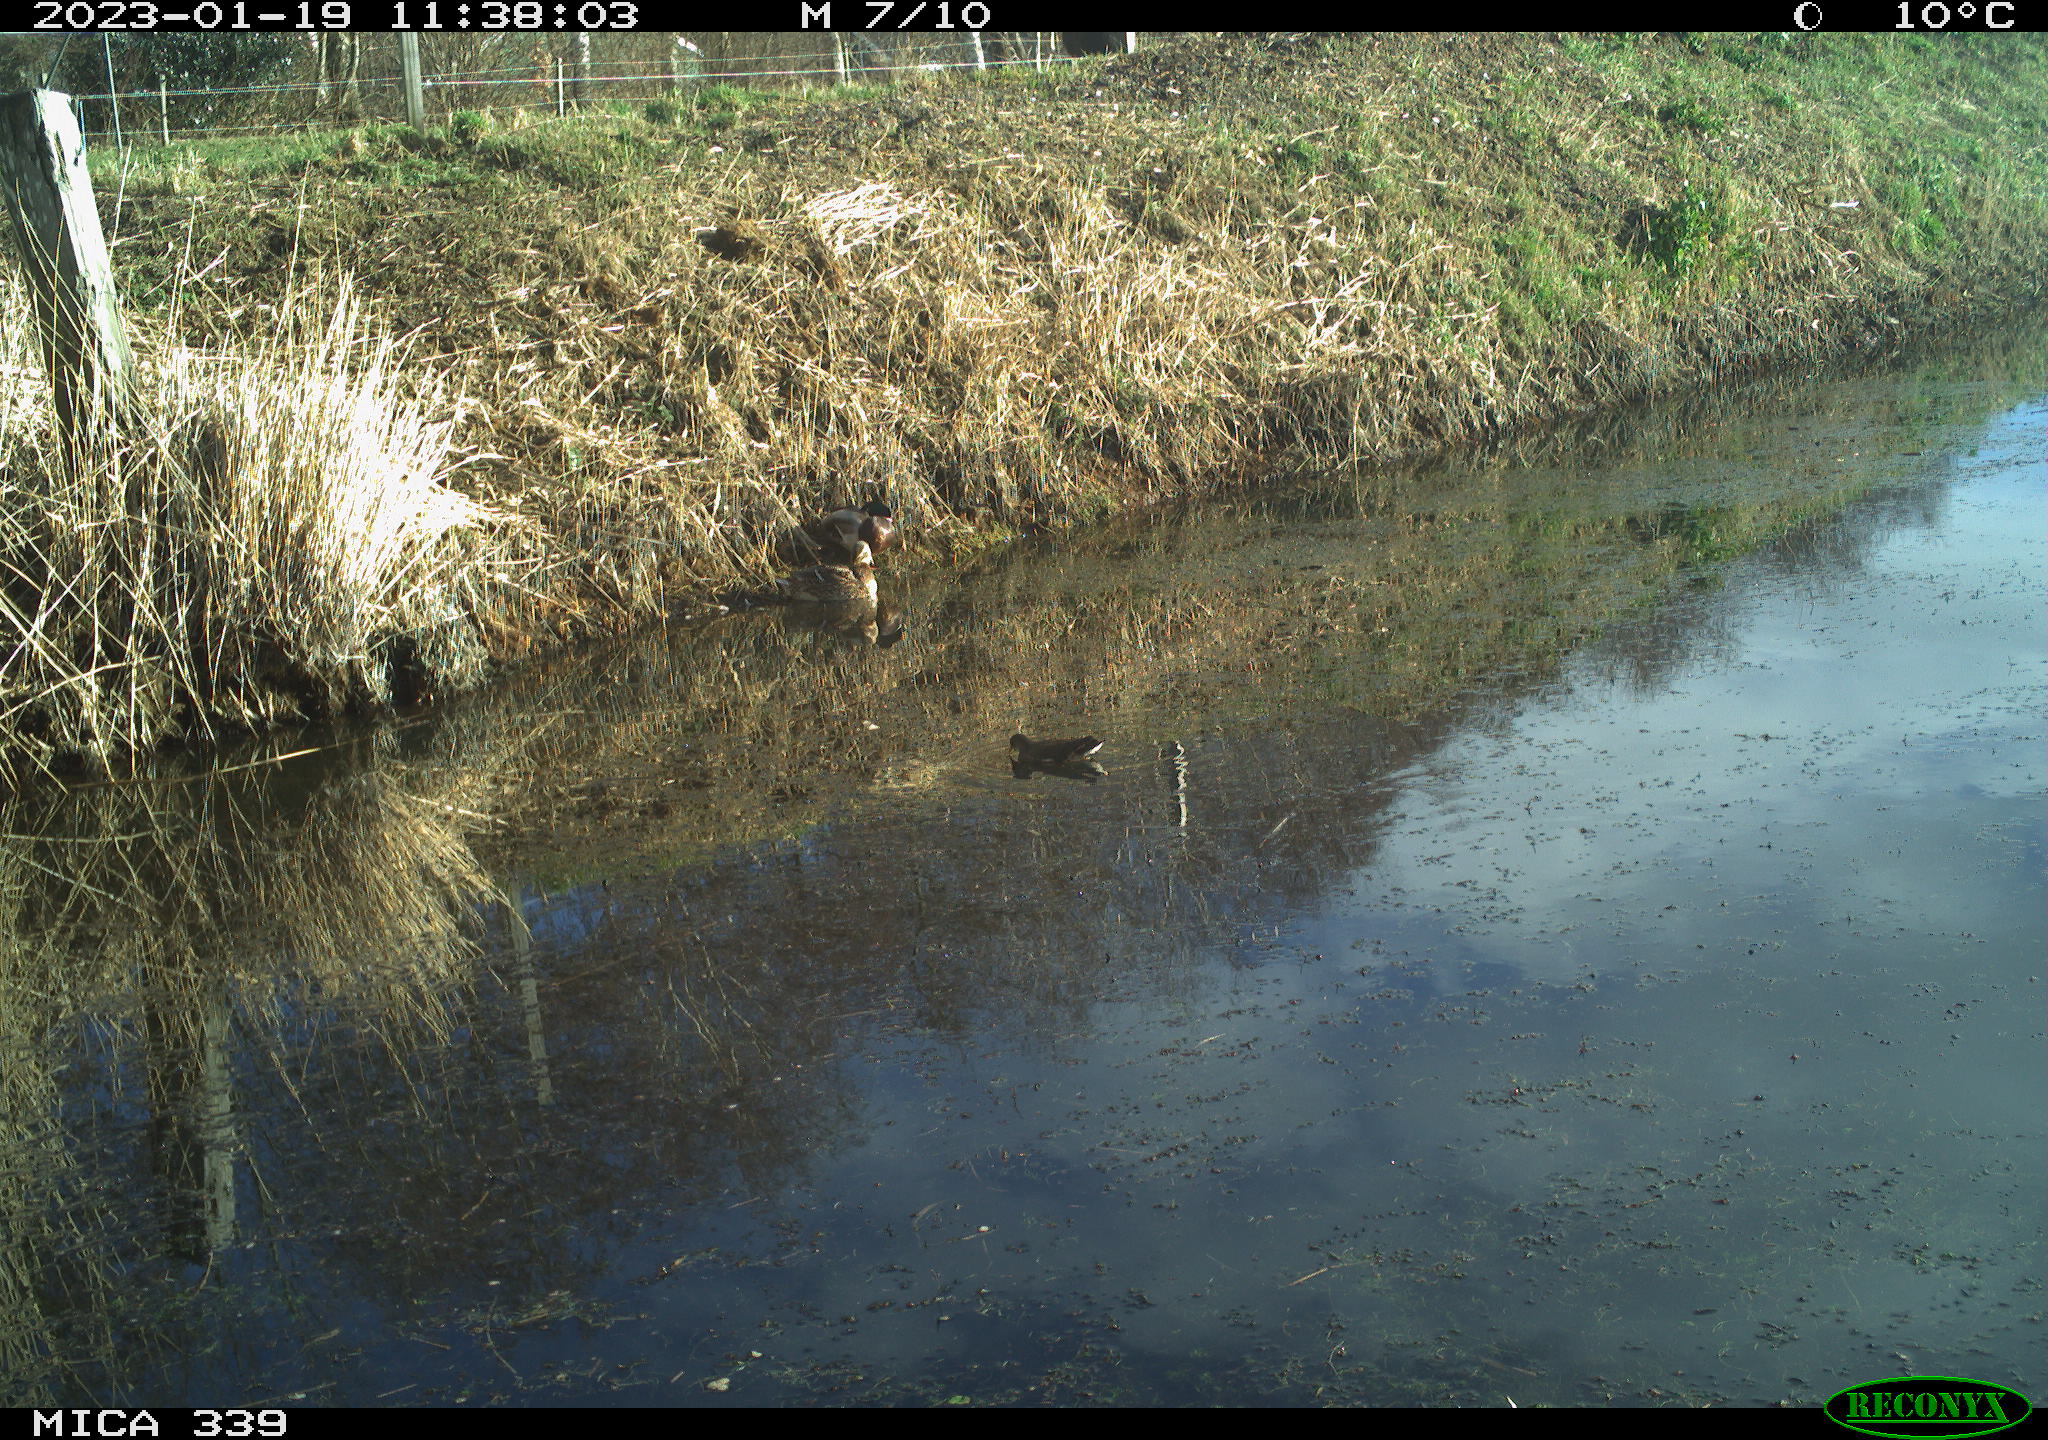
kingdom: Animalia
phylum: Chordata
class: Aves
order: Gruiformes
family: Rallidae
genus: Gallinula
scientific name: Gallinula chloropus
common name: Common moorhen
